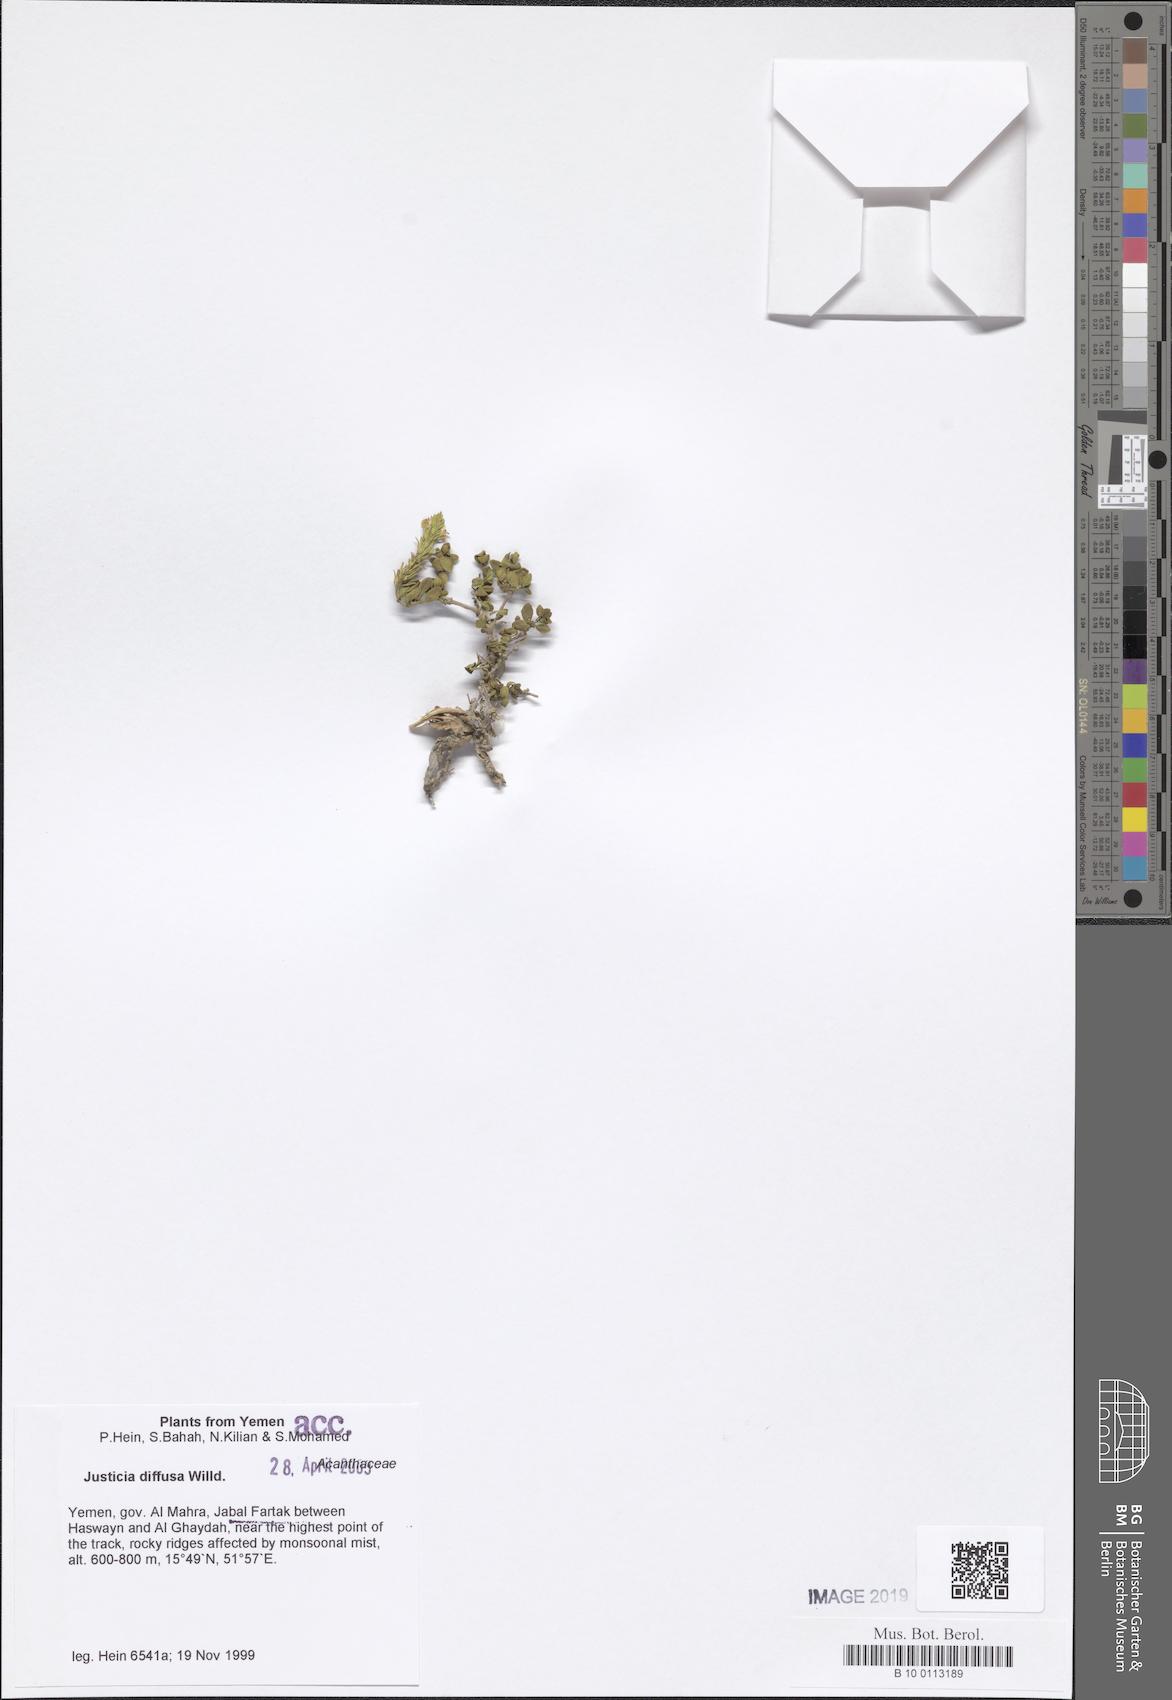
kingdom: Plantae
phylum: Tracheophyta
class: Magnoliopsida
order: Lamiales
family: Acanthaceae
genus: Rostellularia
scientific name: Rostellularia diffusa
